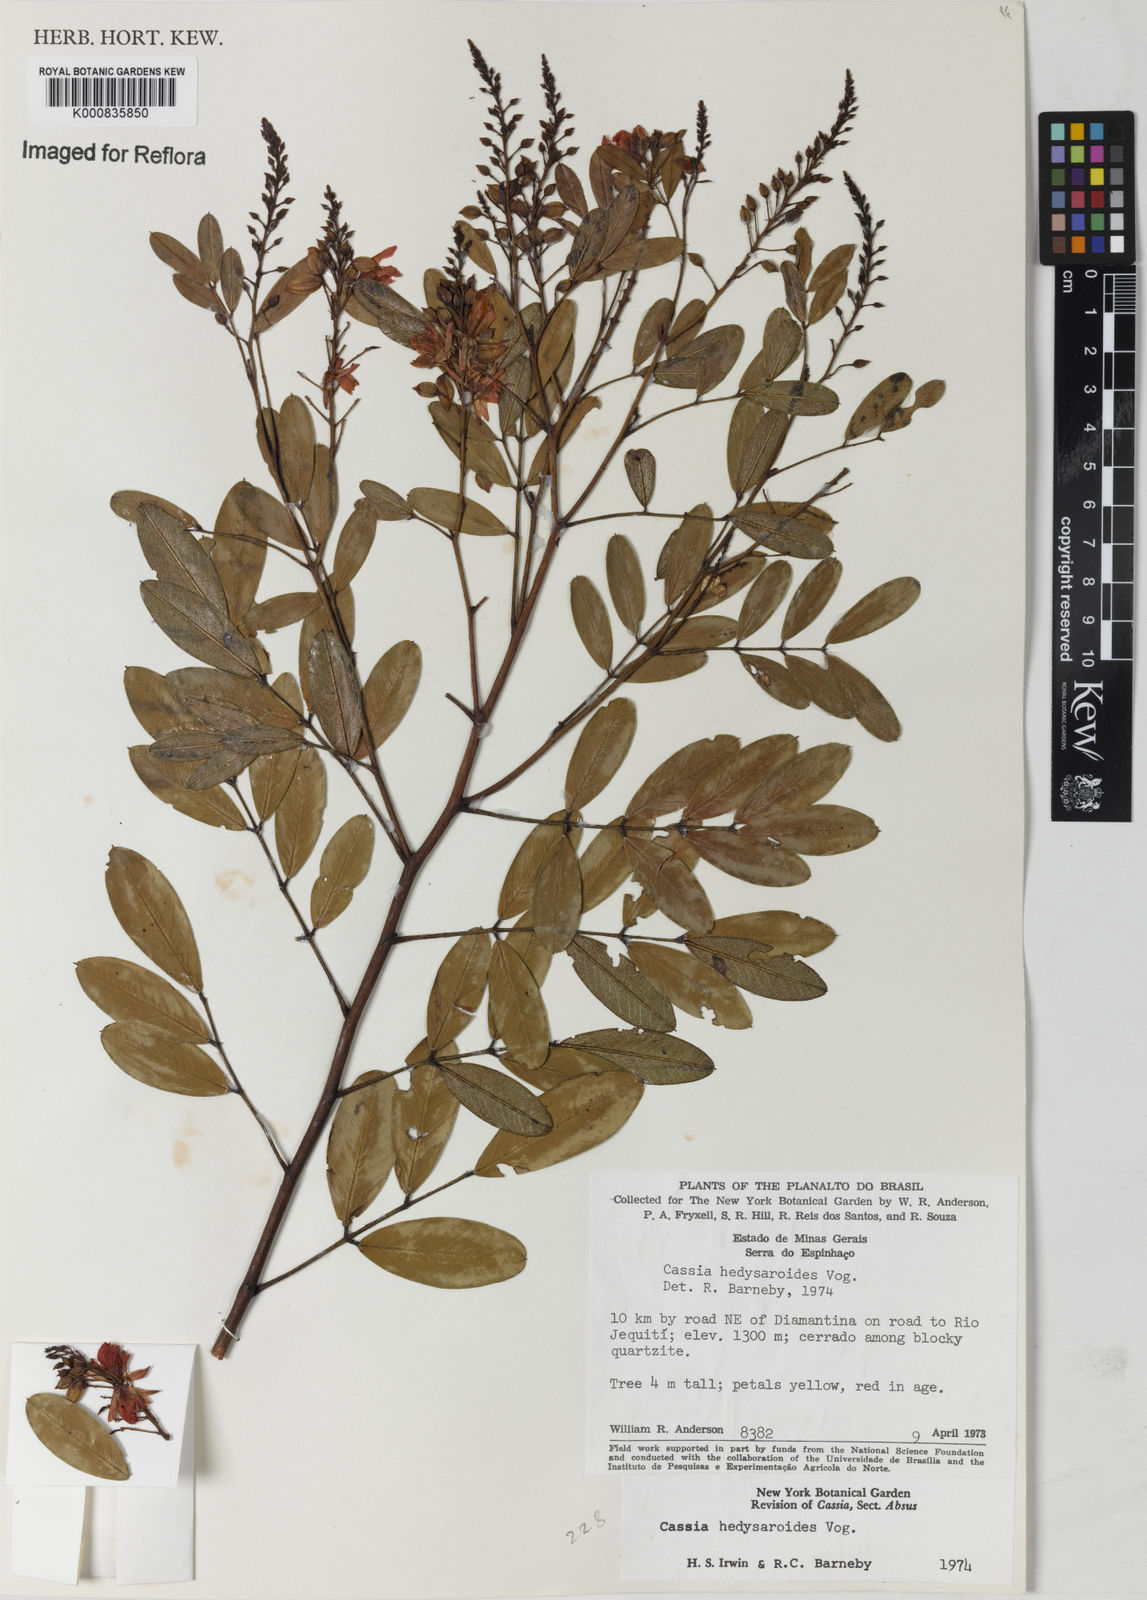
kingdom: Plantae
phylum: Tracheophyta
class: Magnoliopsida
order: Fabales
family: Fabaceae
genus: Chamaecrista
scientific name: Chamaecrista hedysaroides
